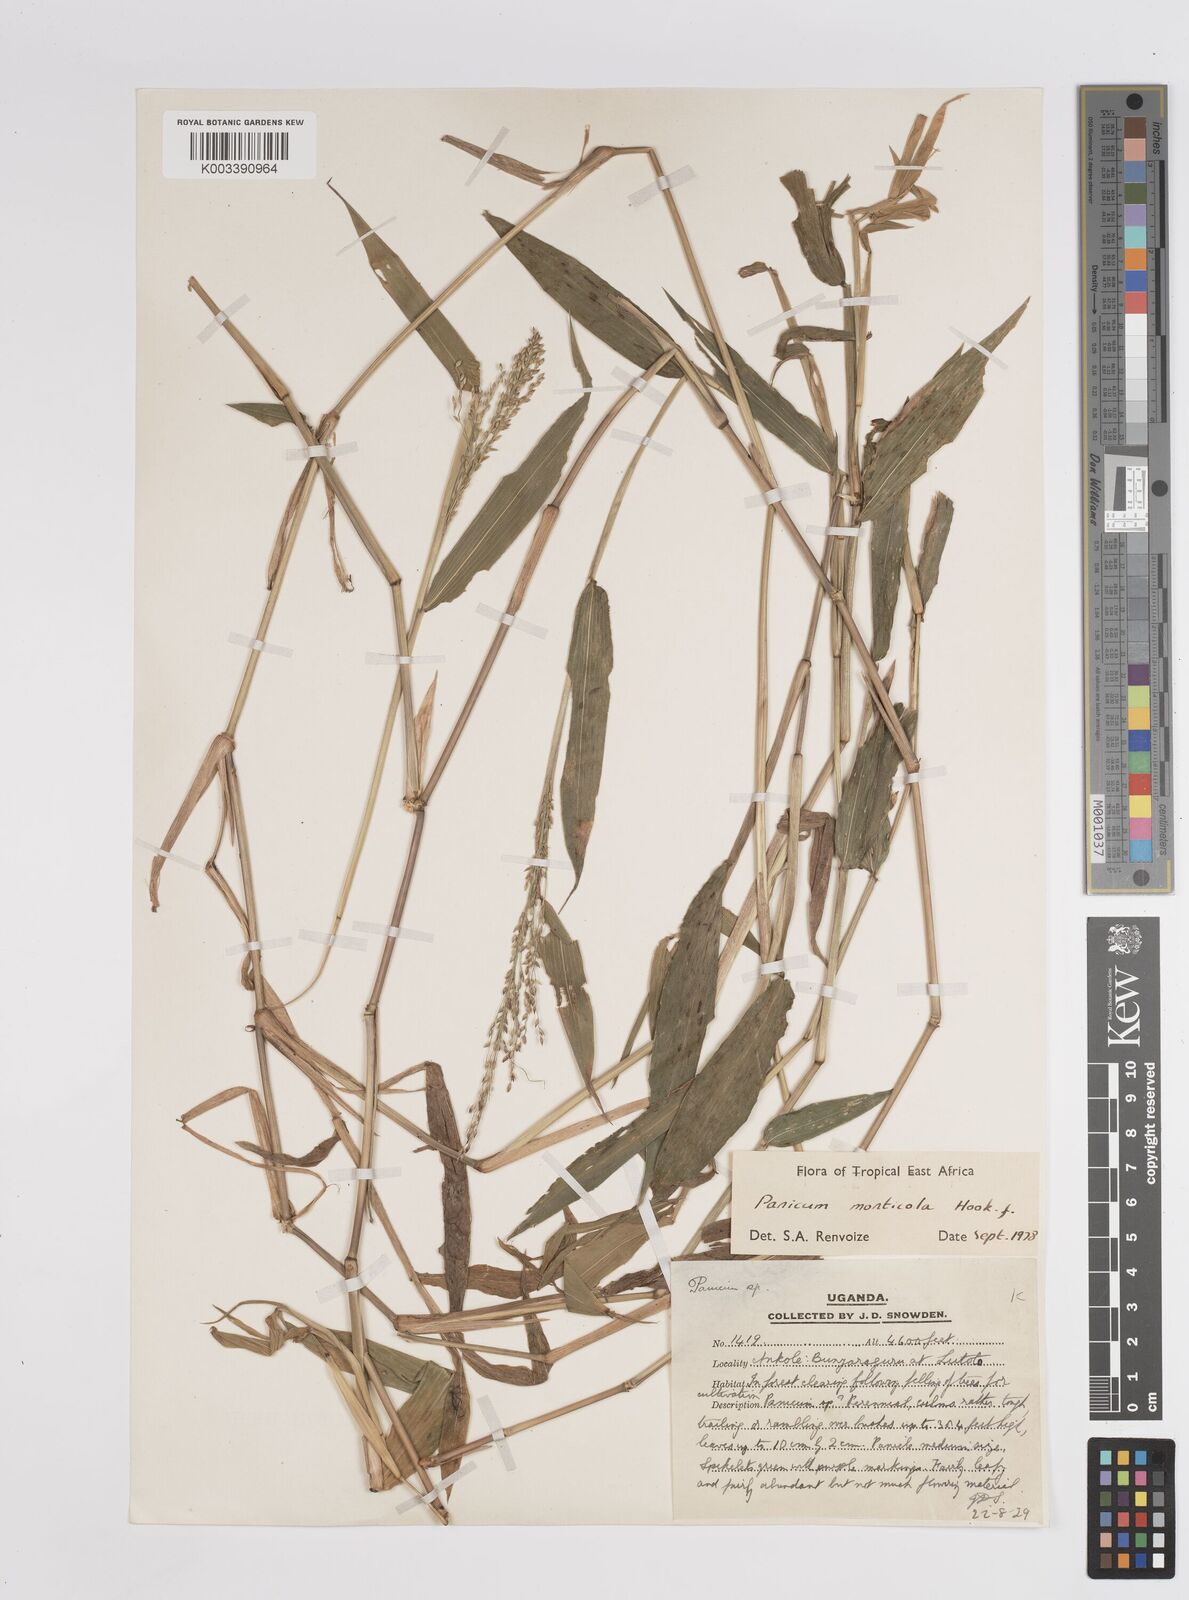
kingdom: Plantae
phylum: Tracheophyta
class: Liliopsida
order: Poales
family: Poaceae
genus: Panicum
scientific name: Panicum
